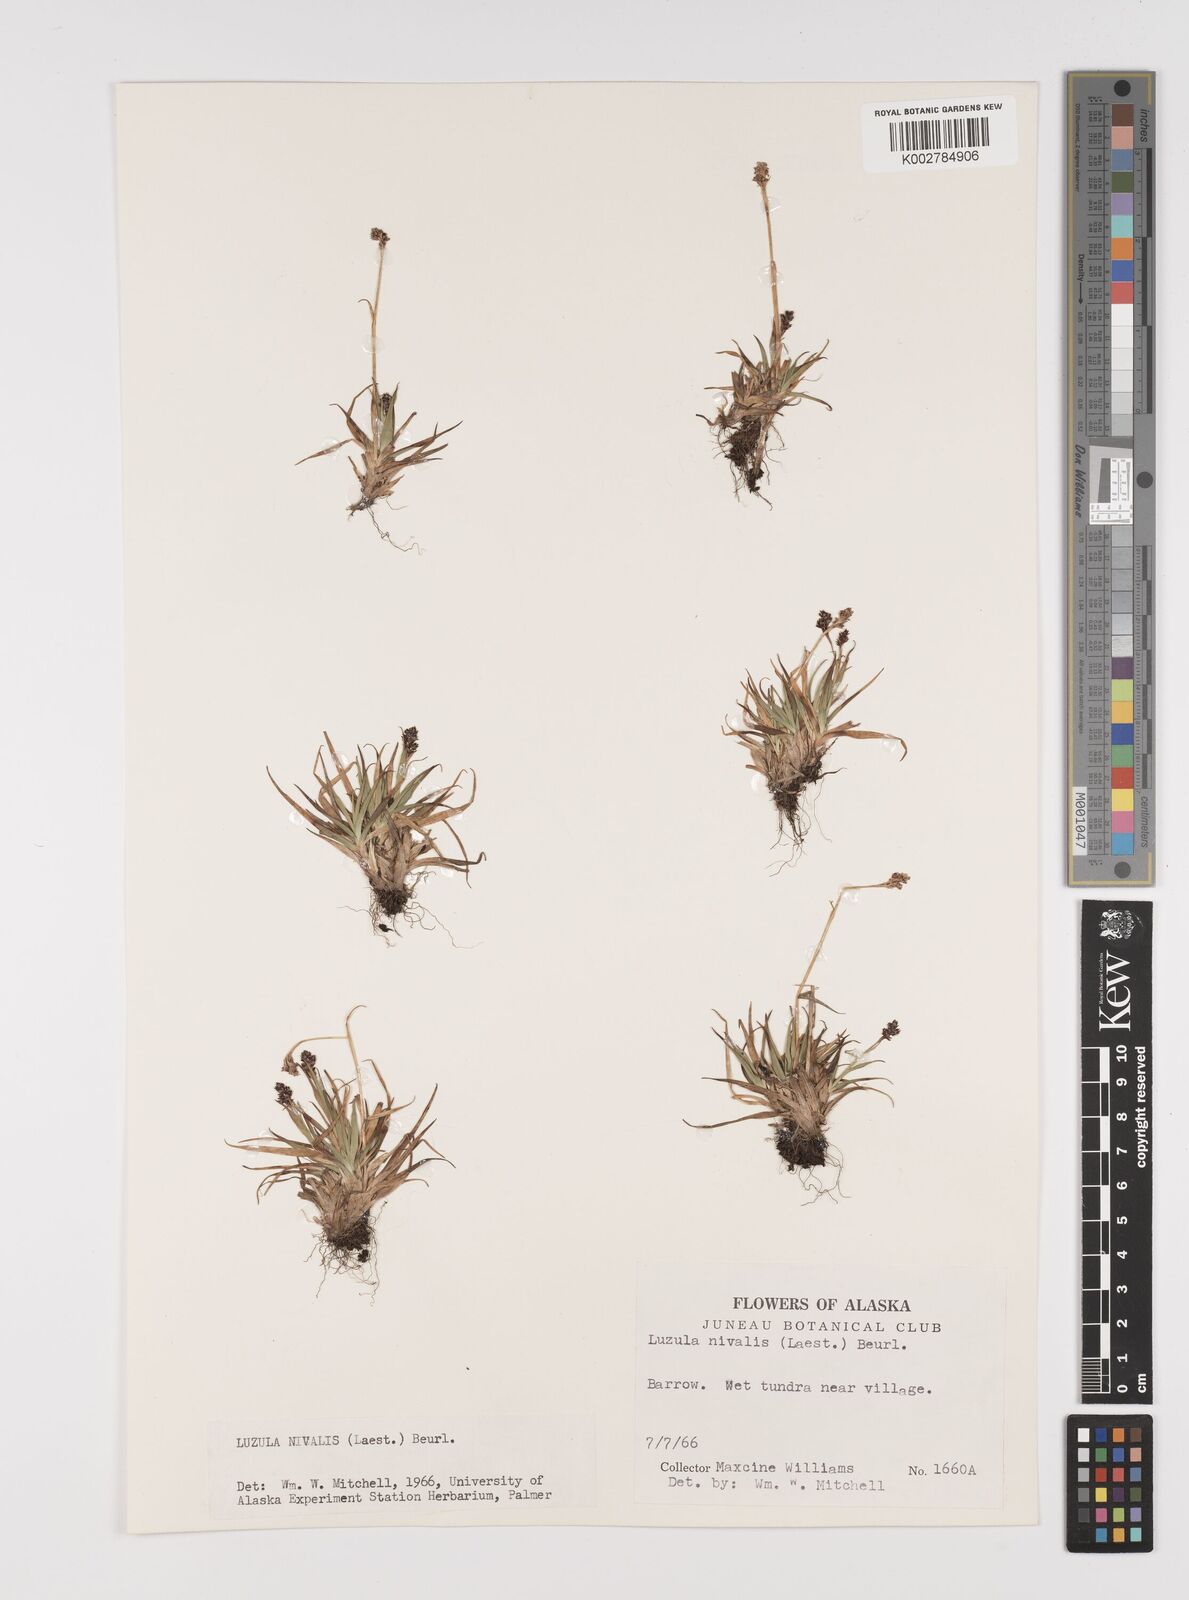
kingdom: Plantae
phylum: Tracheophyta
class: Liliopsida
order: Poales
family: Juncaceae
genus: Luzula
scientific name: Luzula nivalis
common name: Arctic woodrush
